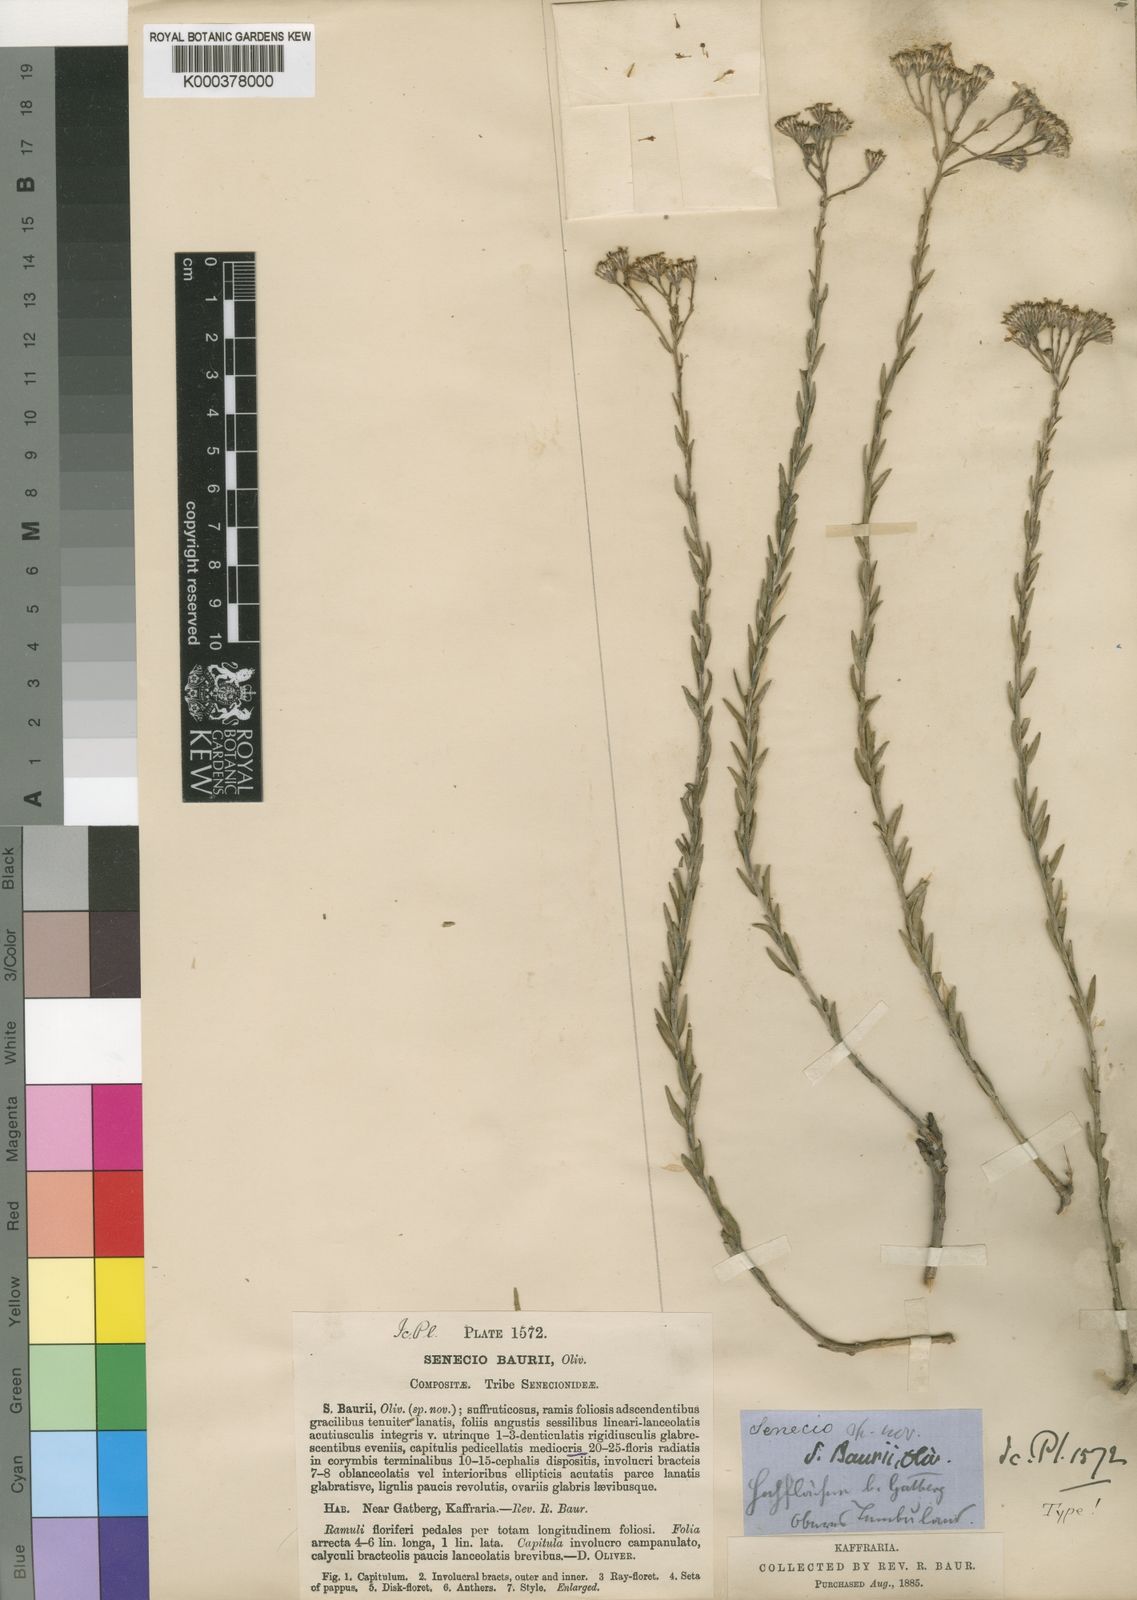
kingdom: Plantae
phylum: Tracheophyta
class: Magnoliopsida
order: Asterales
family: Asteraceae
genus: Senecio
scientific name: Senecio baurii
